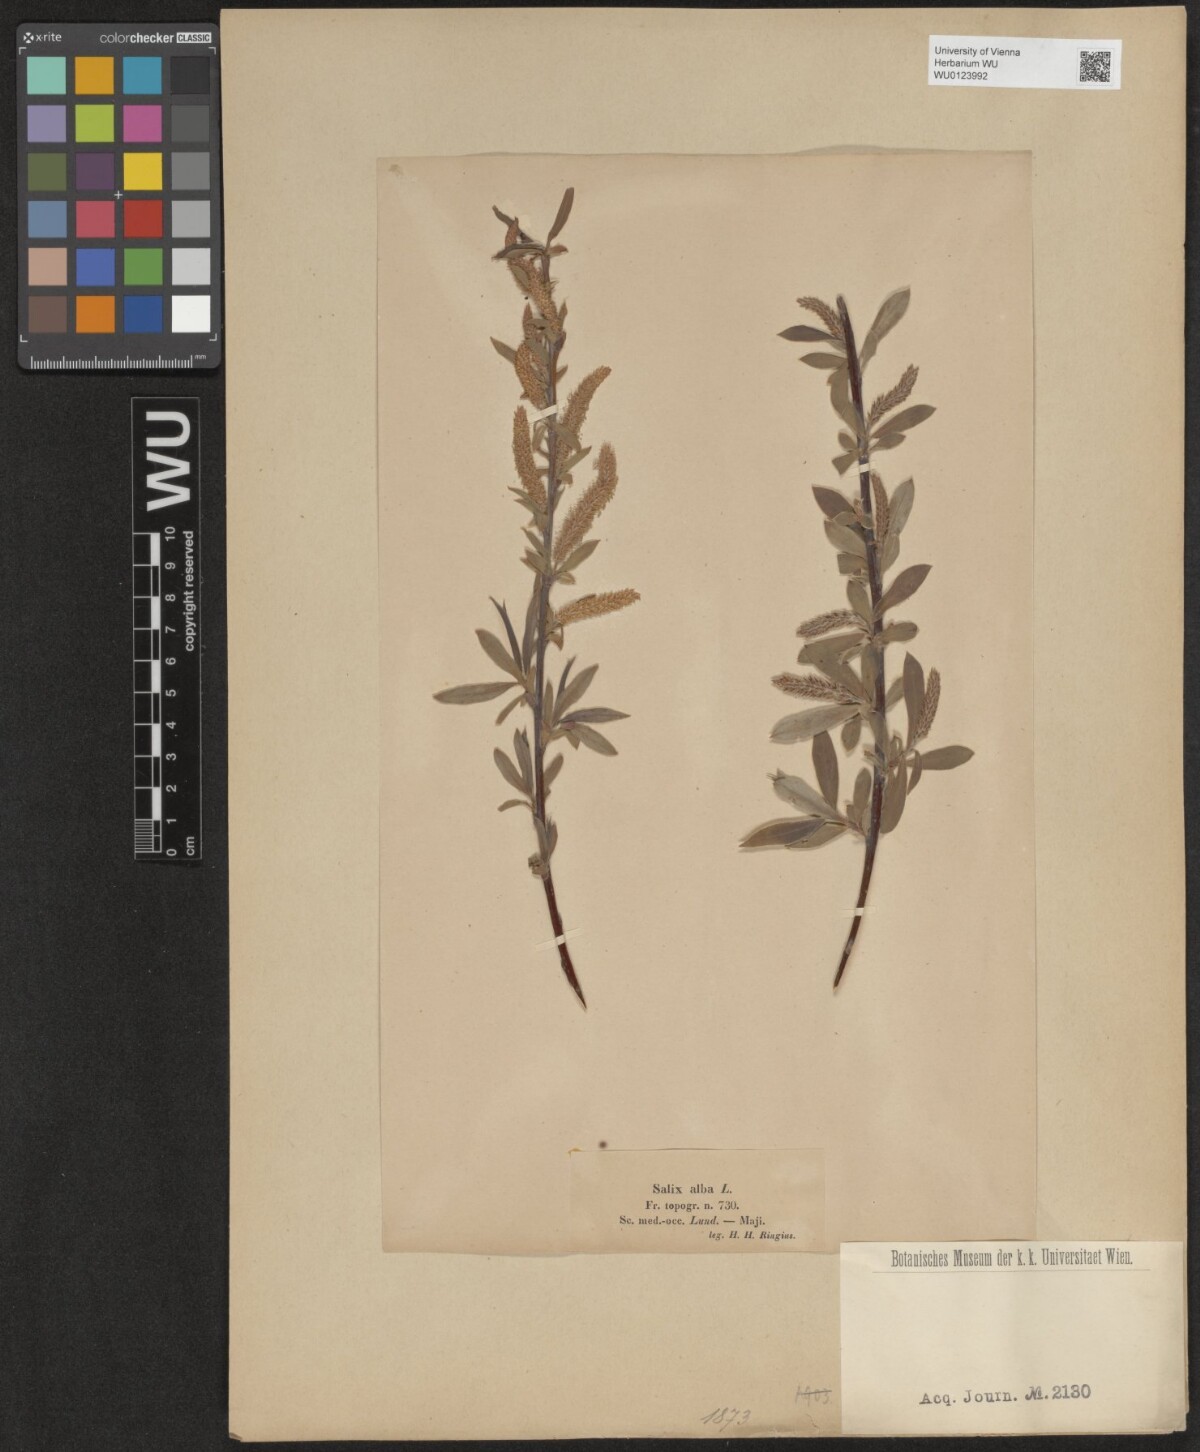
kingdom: Plantae
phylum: Tracheophyta
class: Magnoliopsida
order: Malpighiales
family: Salicaceae
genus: Salix
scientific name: Salix alba
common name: White willow
